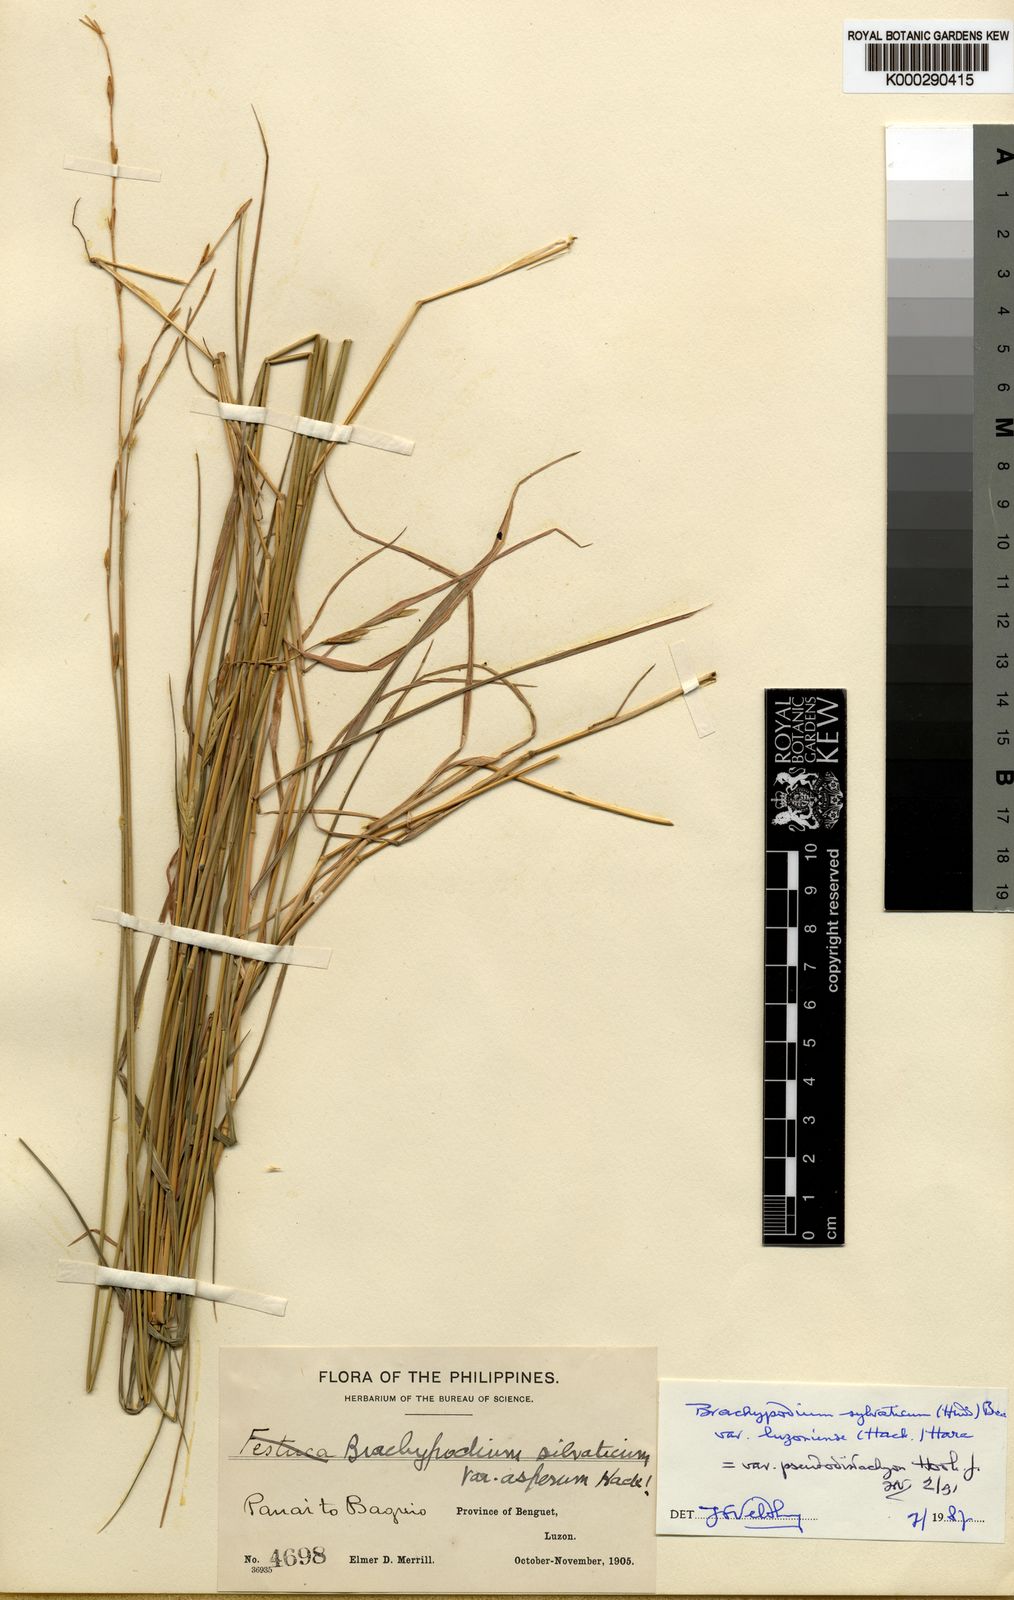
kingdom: Plantae
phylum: Tracheophyta
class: Liliopsida
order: Poales
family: Poaceae
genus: Brachypodium
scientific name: Brachypodium sylvaticum
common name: False-brome
